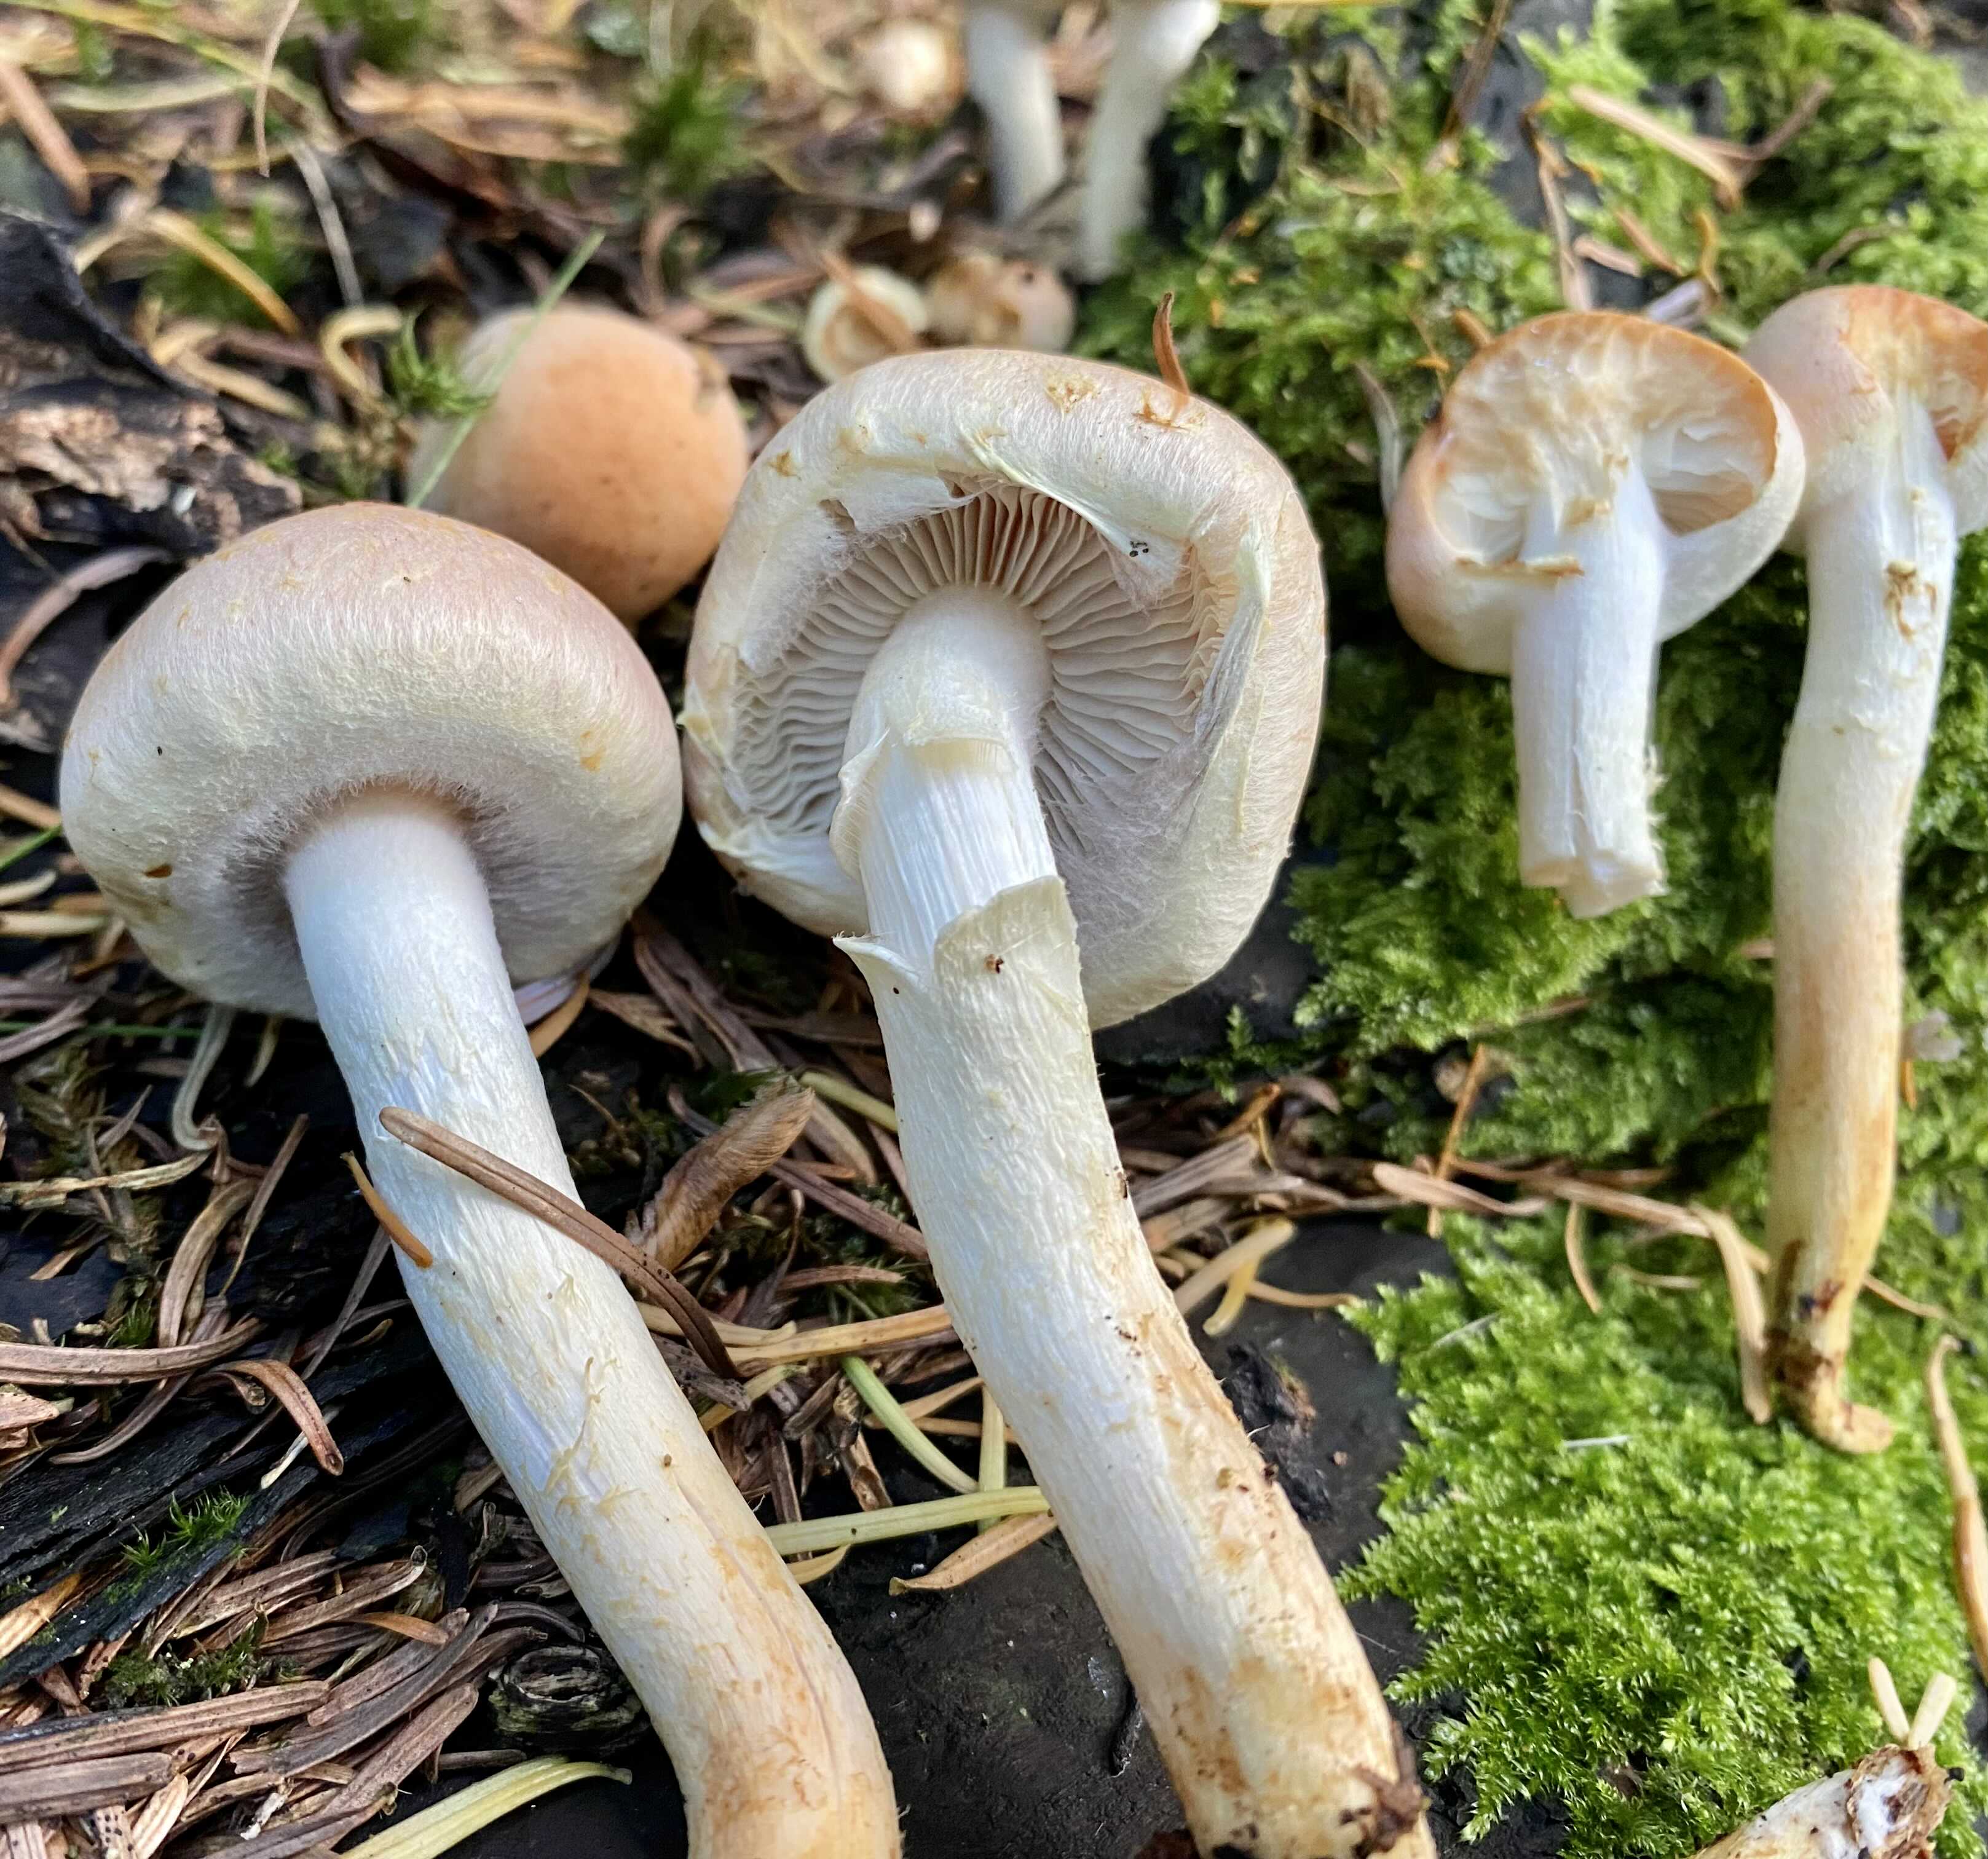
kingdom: Fungi
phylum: Basidiomycota
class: Agaricomycetes
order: Agaricales
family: Strophariaceae
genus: Hypholoma
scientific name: Hypholoma capnoides
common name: gran-svovlhat
